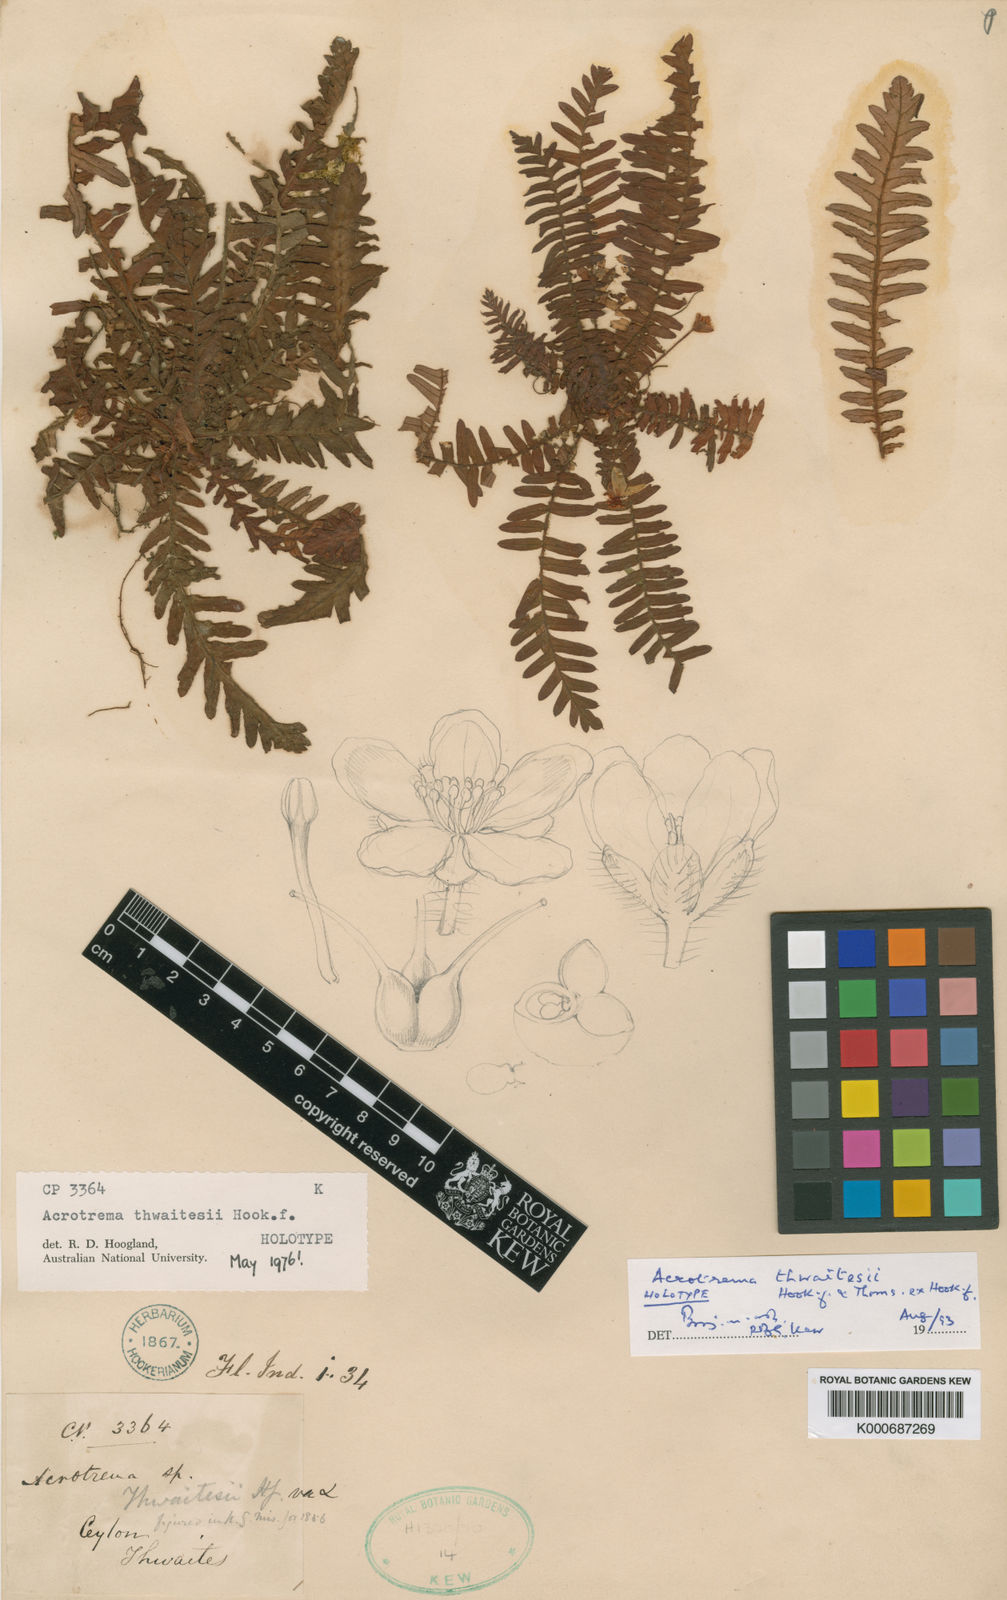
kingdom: Plantae
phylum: Tracheophyta
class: Magnoliopsida
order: Dilleniales
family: Dilleniaceae
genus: Acrotrema
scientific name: Acrotrema thwaitesii
